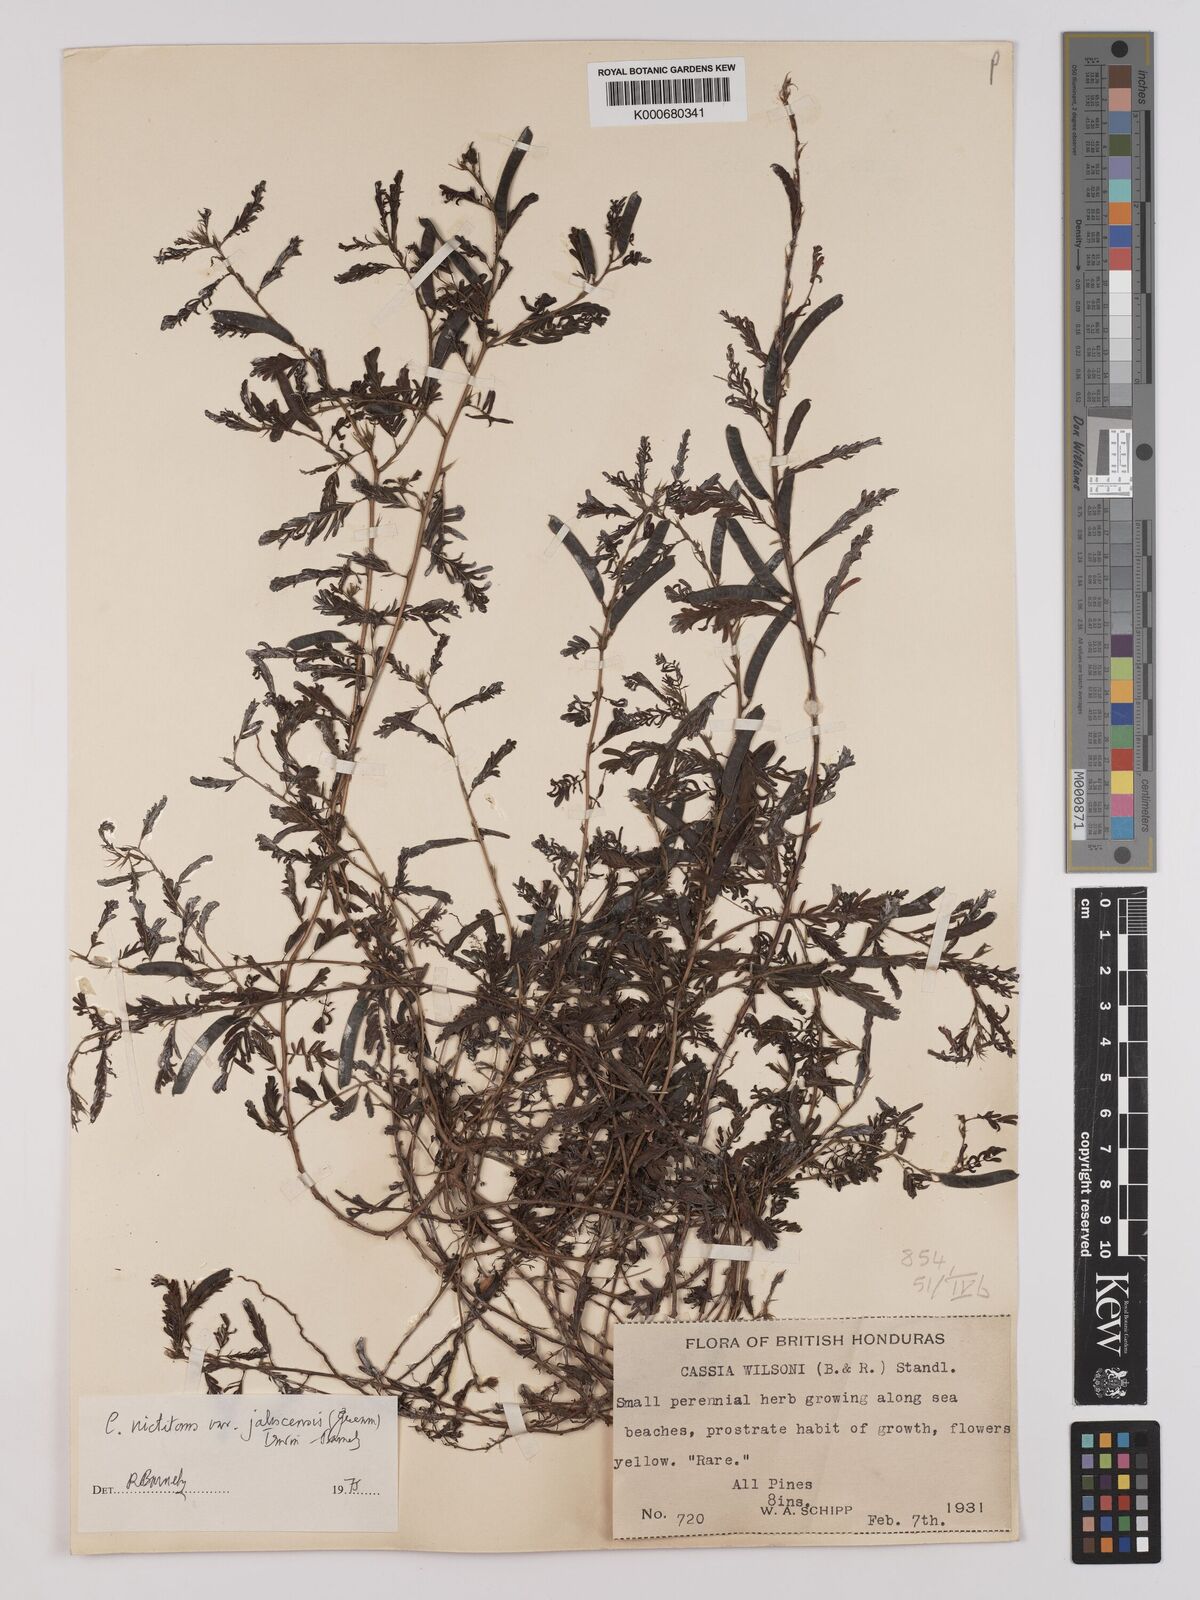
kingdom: Plantae
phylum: Tracheophyta
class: Magnoliopsida
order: Fabales
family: Fabaceae
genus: Chamaecrista
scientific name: Chamaecrista nictitans
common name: Sensitive cassia
